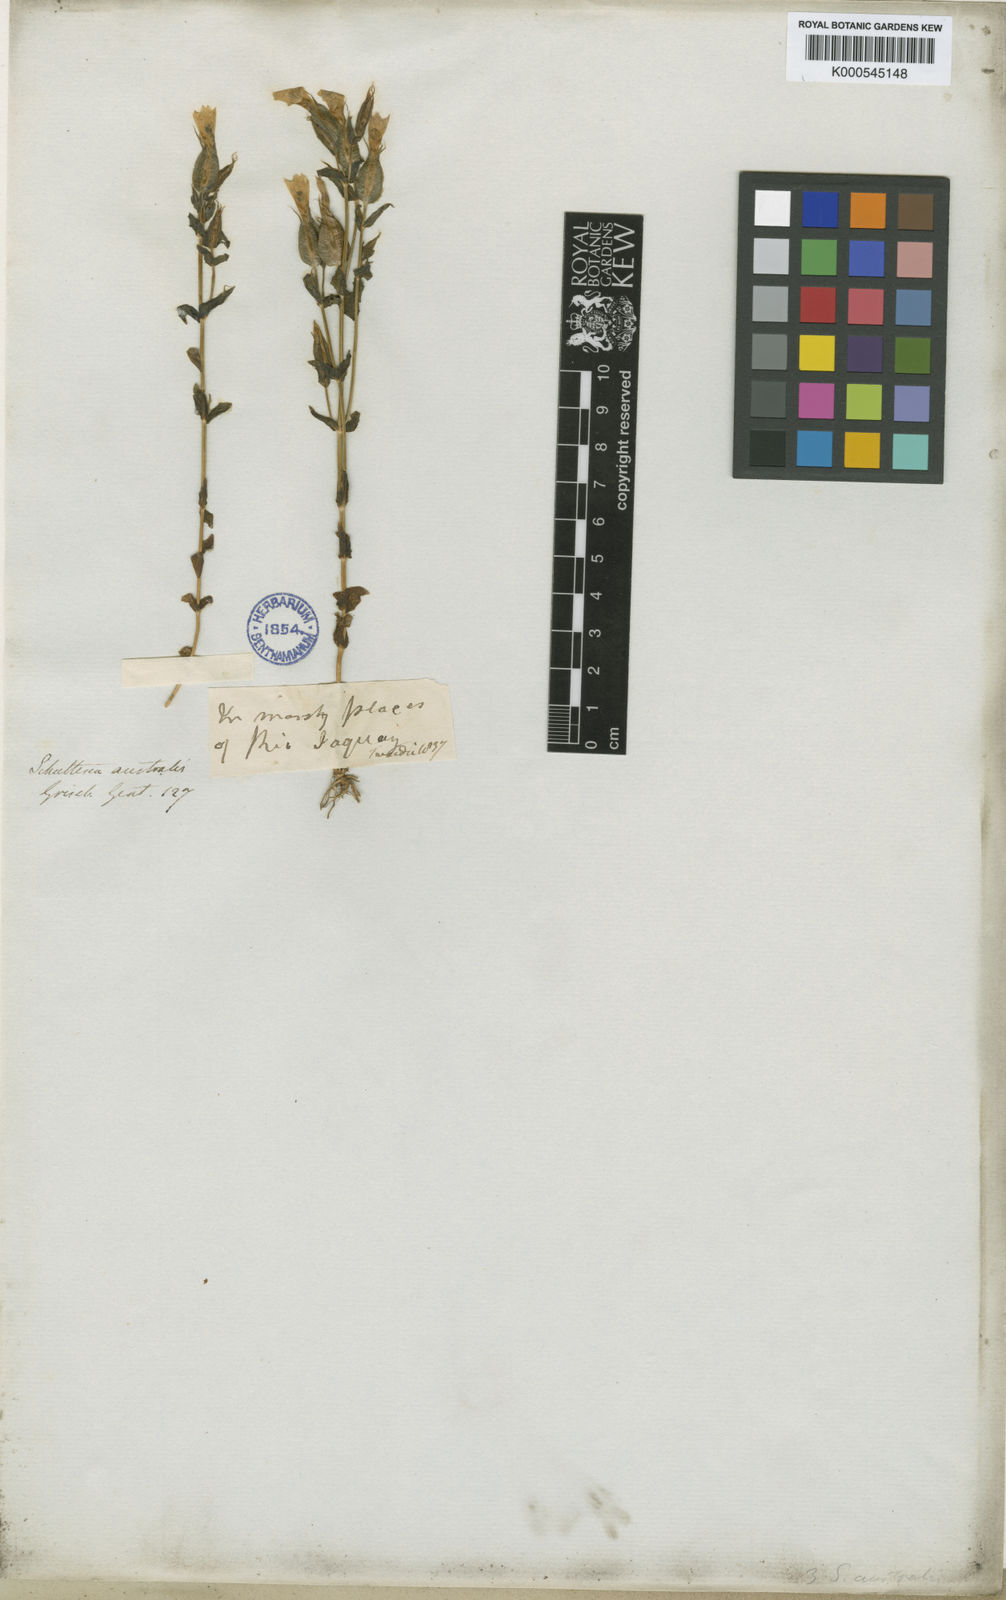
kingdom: Plantae
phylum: Tracheophyta
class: Magnoliopsida
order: Gentianales
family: Gentianaceae
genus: Schultesia
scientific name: Schultesia australis
